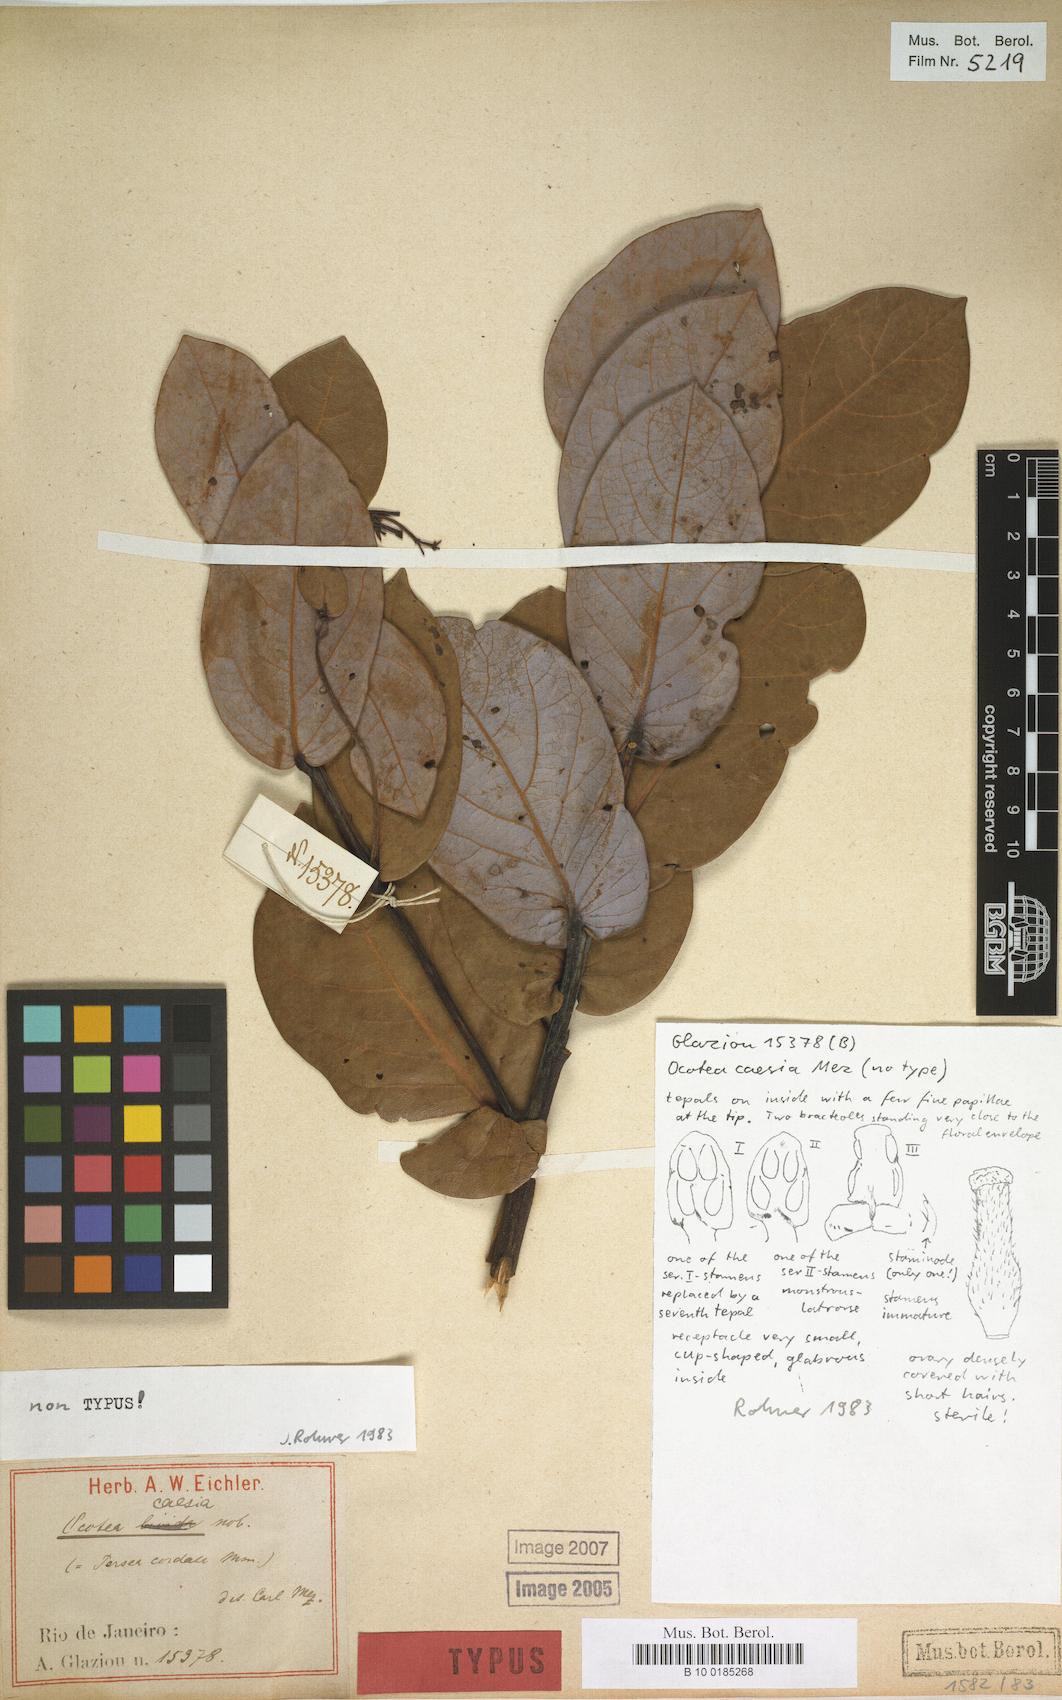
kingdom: Plantae
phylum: Tracheophyta
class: Magnoliopsida
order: Laurales
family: Lauraceae
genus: Ocotea
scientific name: Ocotea caesia
